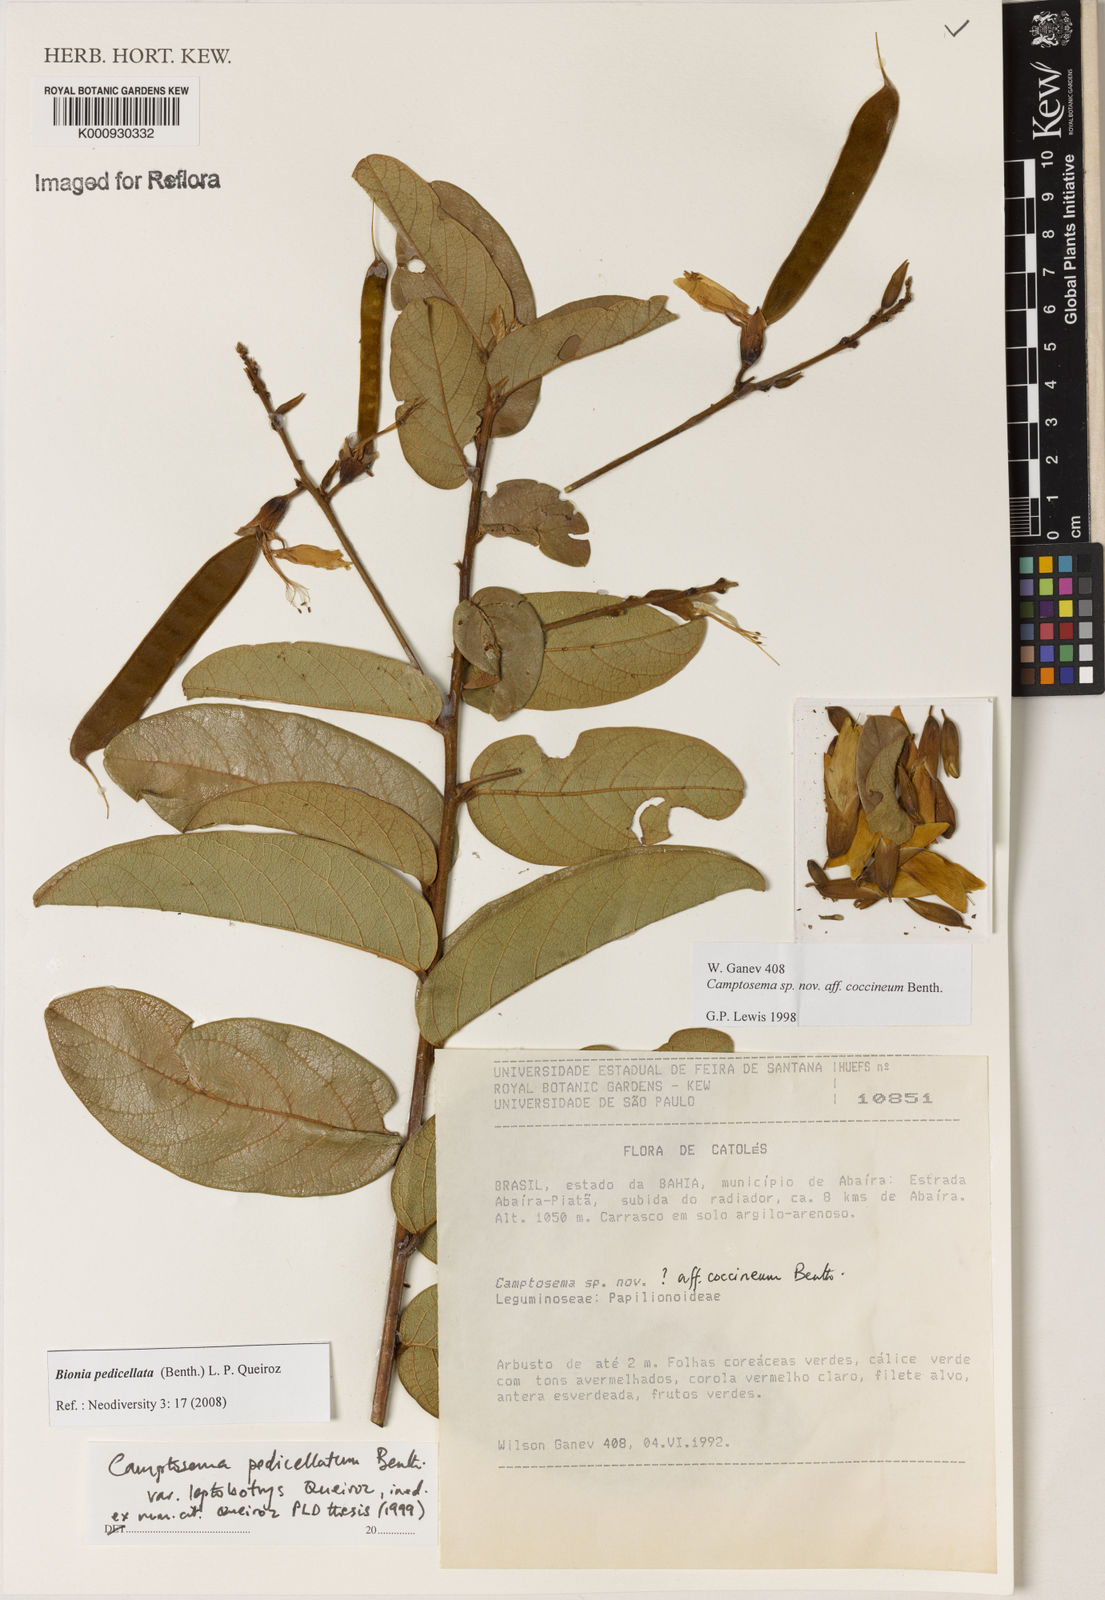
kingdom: Plantae
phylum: Tracheophyta
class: Magnoliopsida
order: Fabales
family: Fabaceae
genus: Camptosema
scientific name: Camptosema pedicellatum
